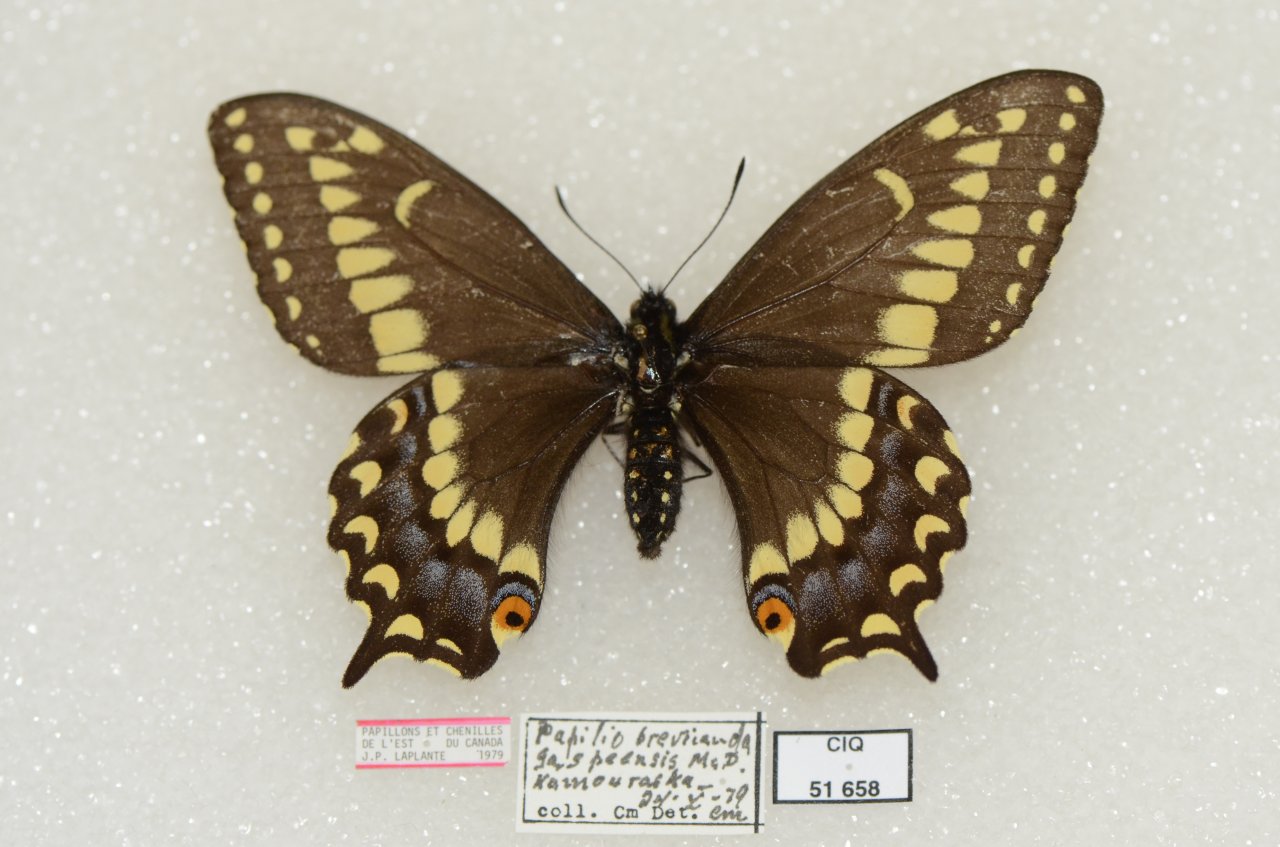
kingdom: Animalia
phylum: Arthropoda
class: Insecta
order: Lepidoptera
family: Papilionidae
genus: Papilio
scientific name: Papilio brevicauda
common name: Short-tailed Swallowtail
